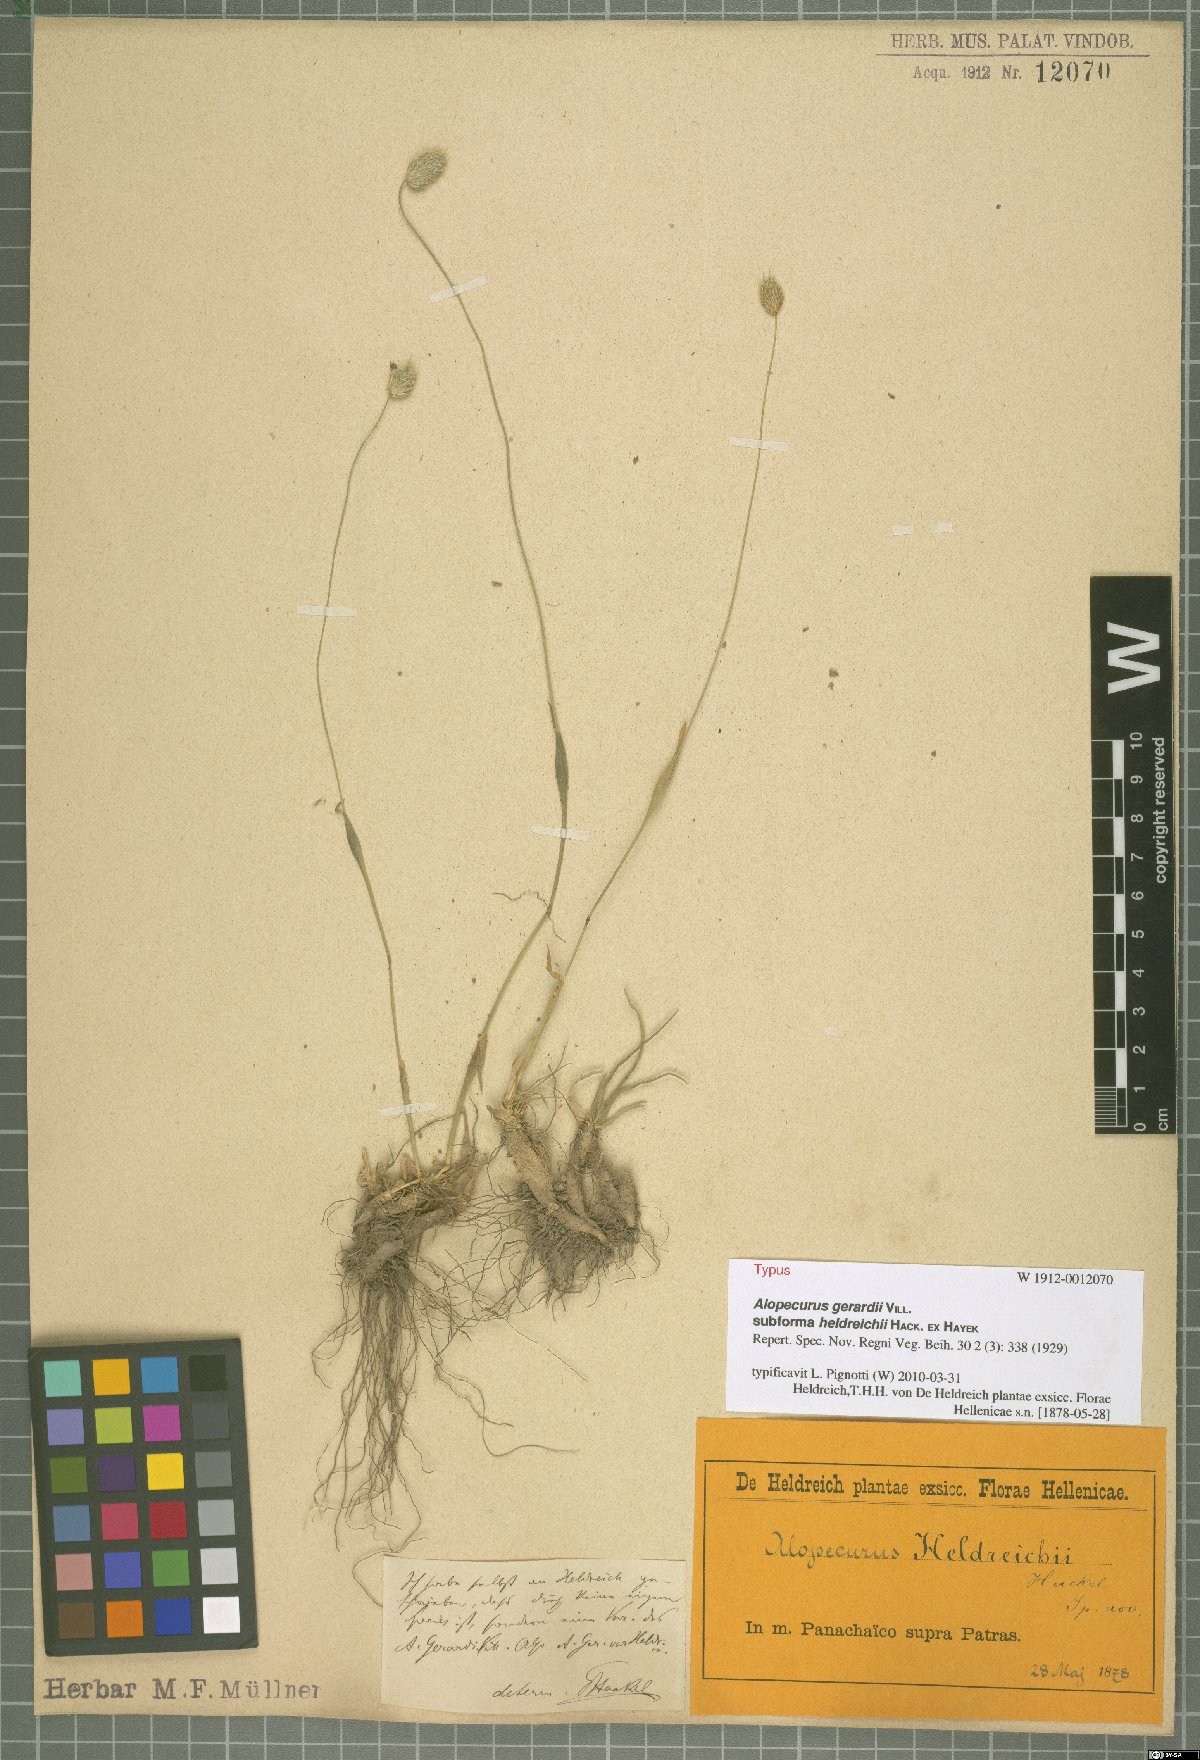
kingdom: Plantae
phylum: Tracheophyta
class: Liliopsida
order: Poales
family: Poaceae
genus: Festuca
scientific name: Festuca jeanpertii
